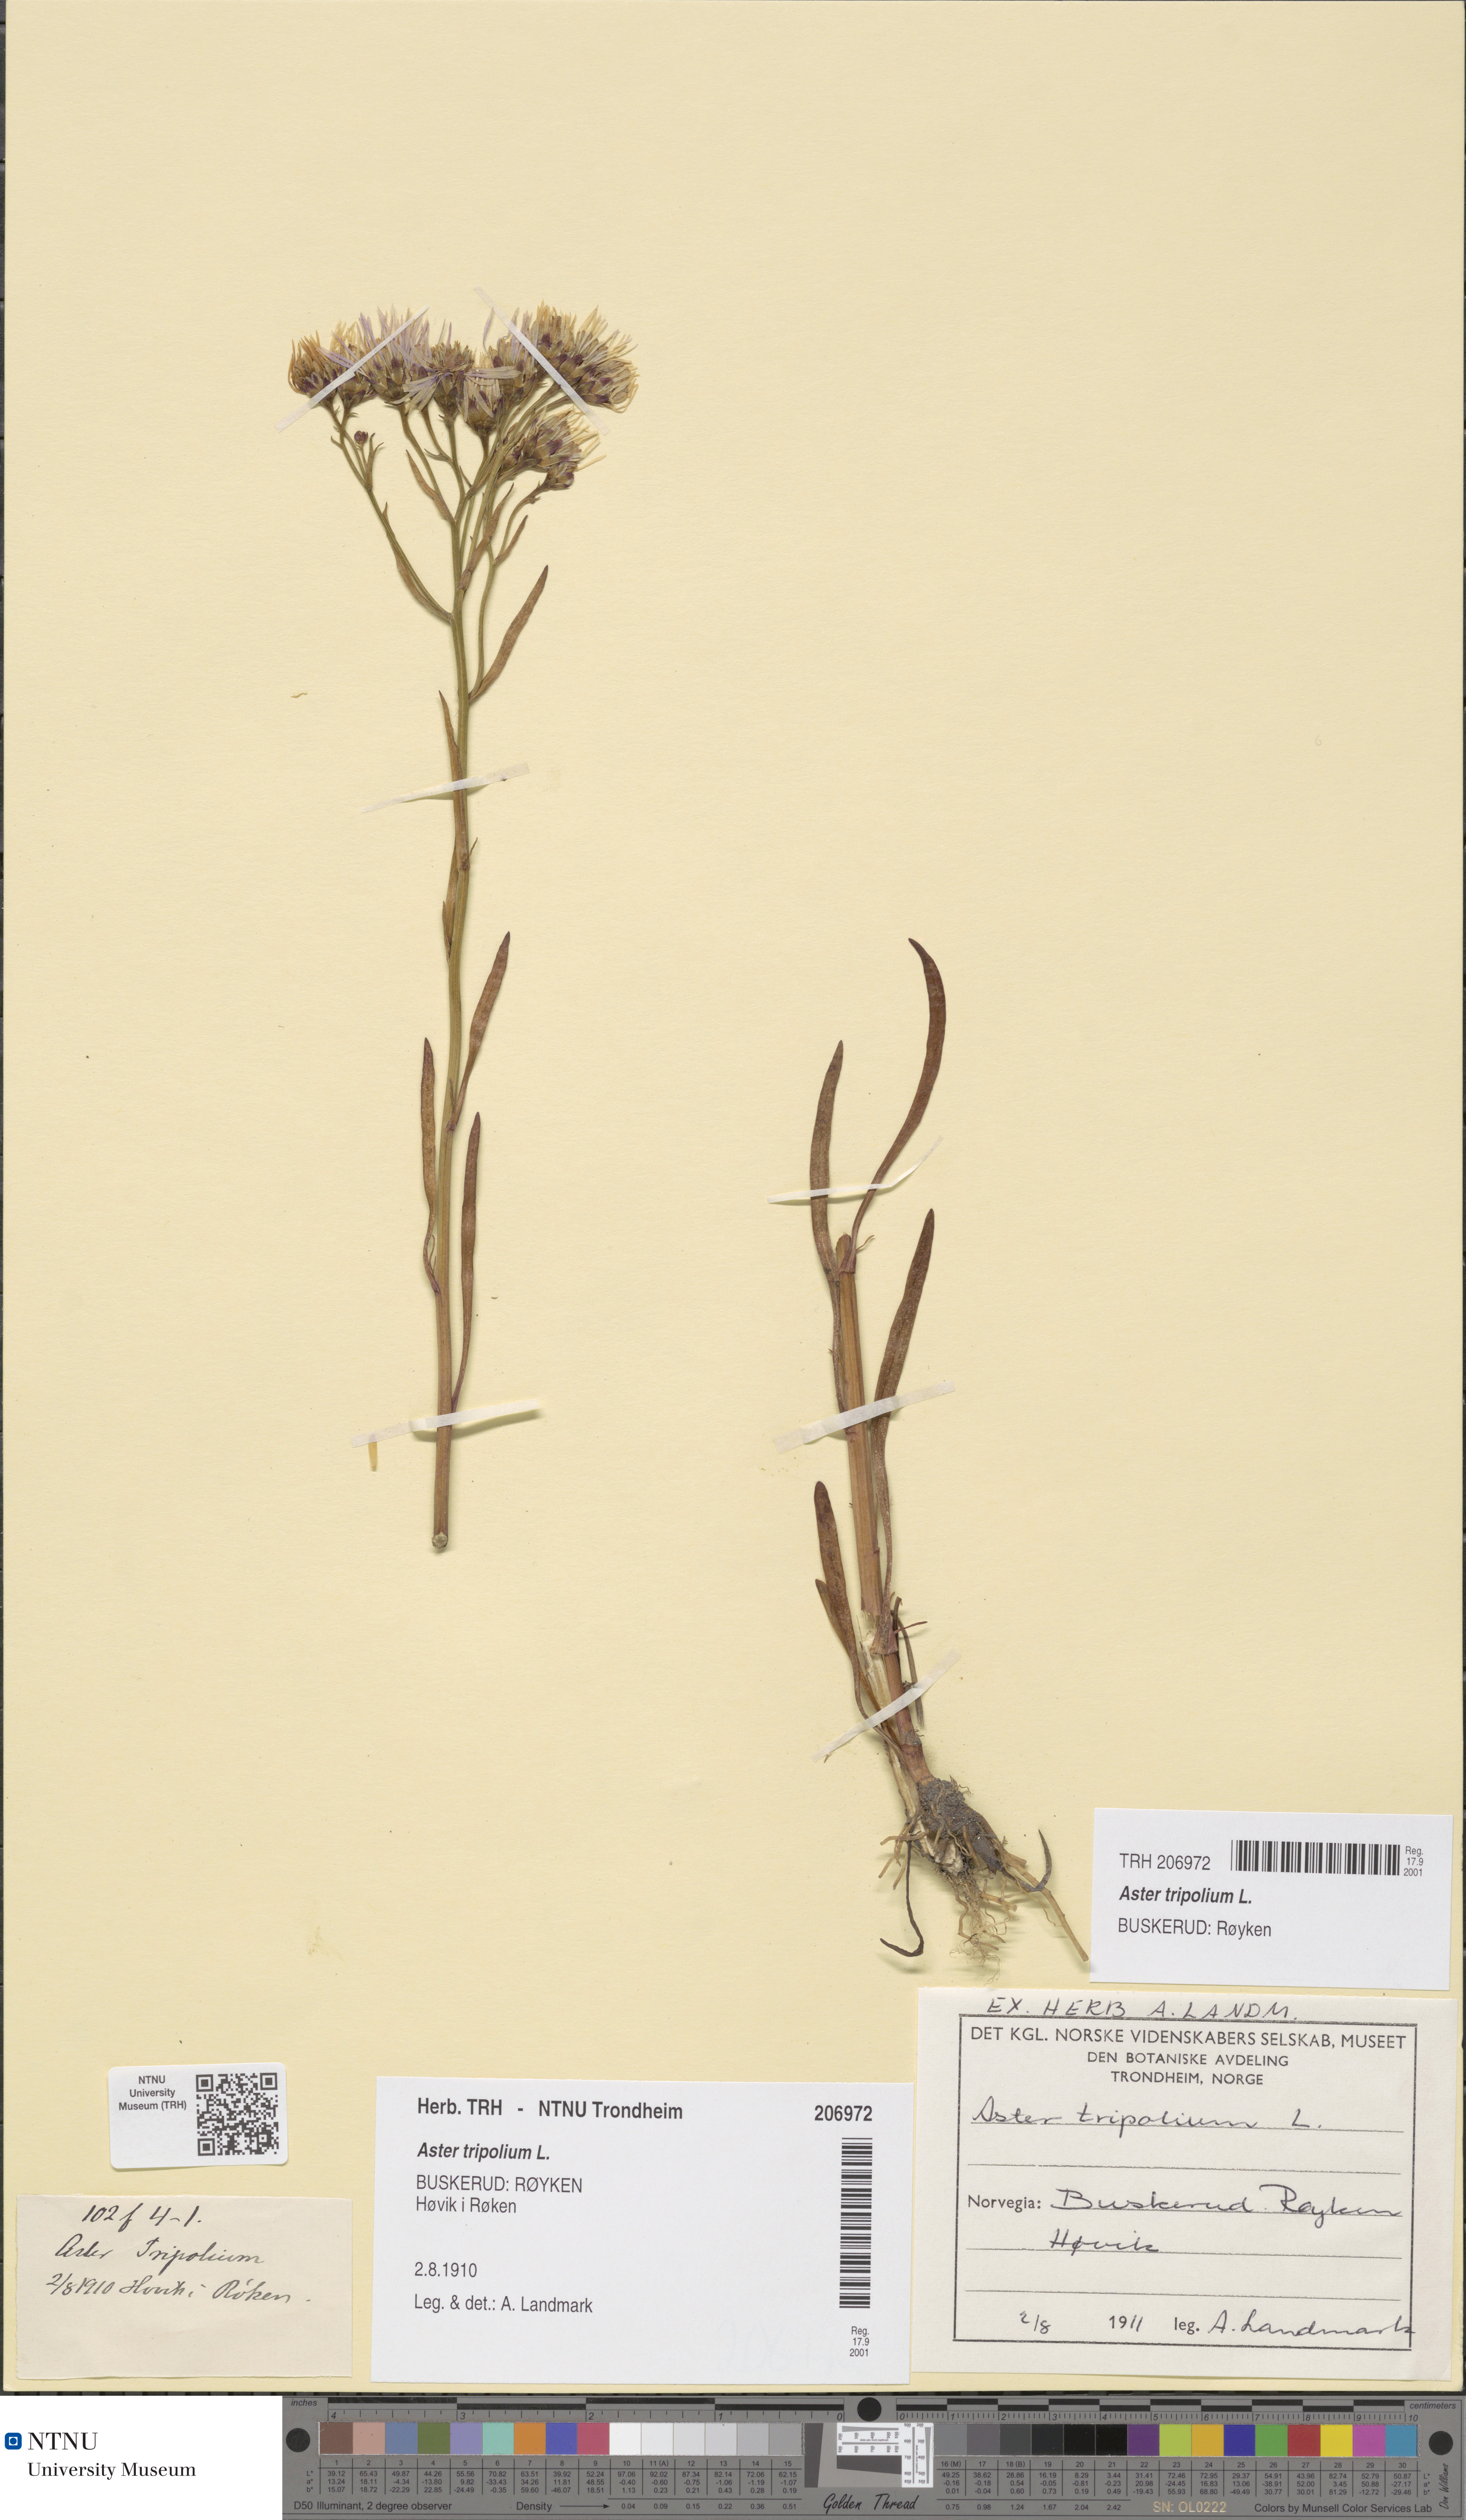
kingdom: Plantae
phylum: Tracheophyta
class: Magnoliopsida
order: Asterales
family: Asteraceae
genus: Tripolium
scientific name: Tripolium pannonicum
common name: Sea aster
